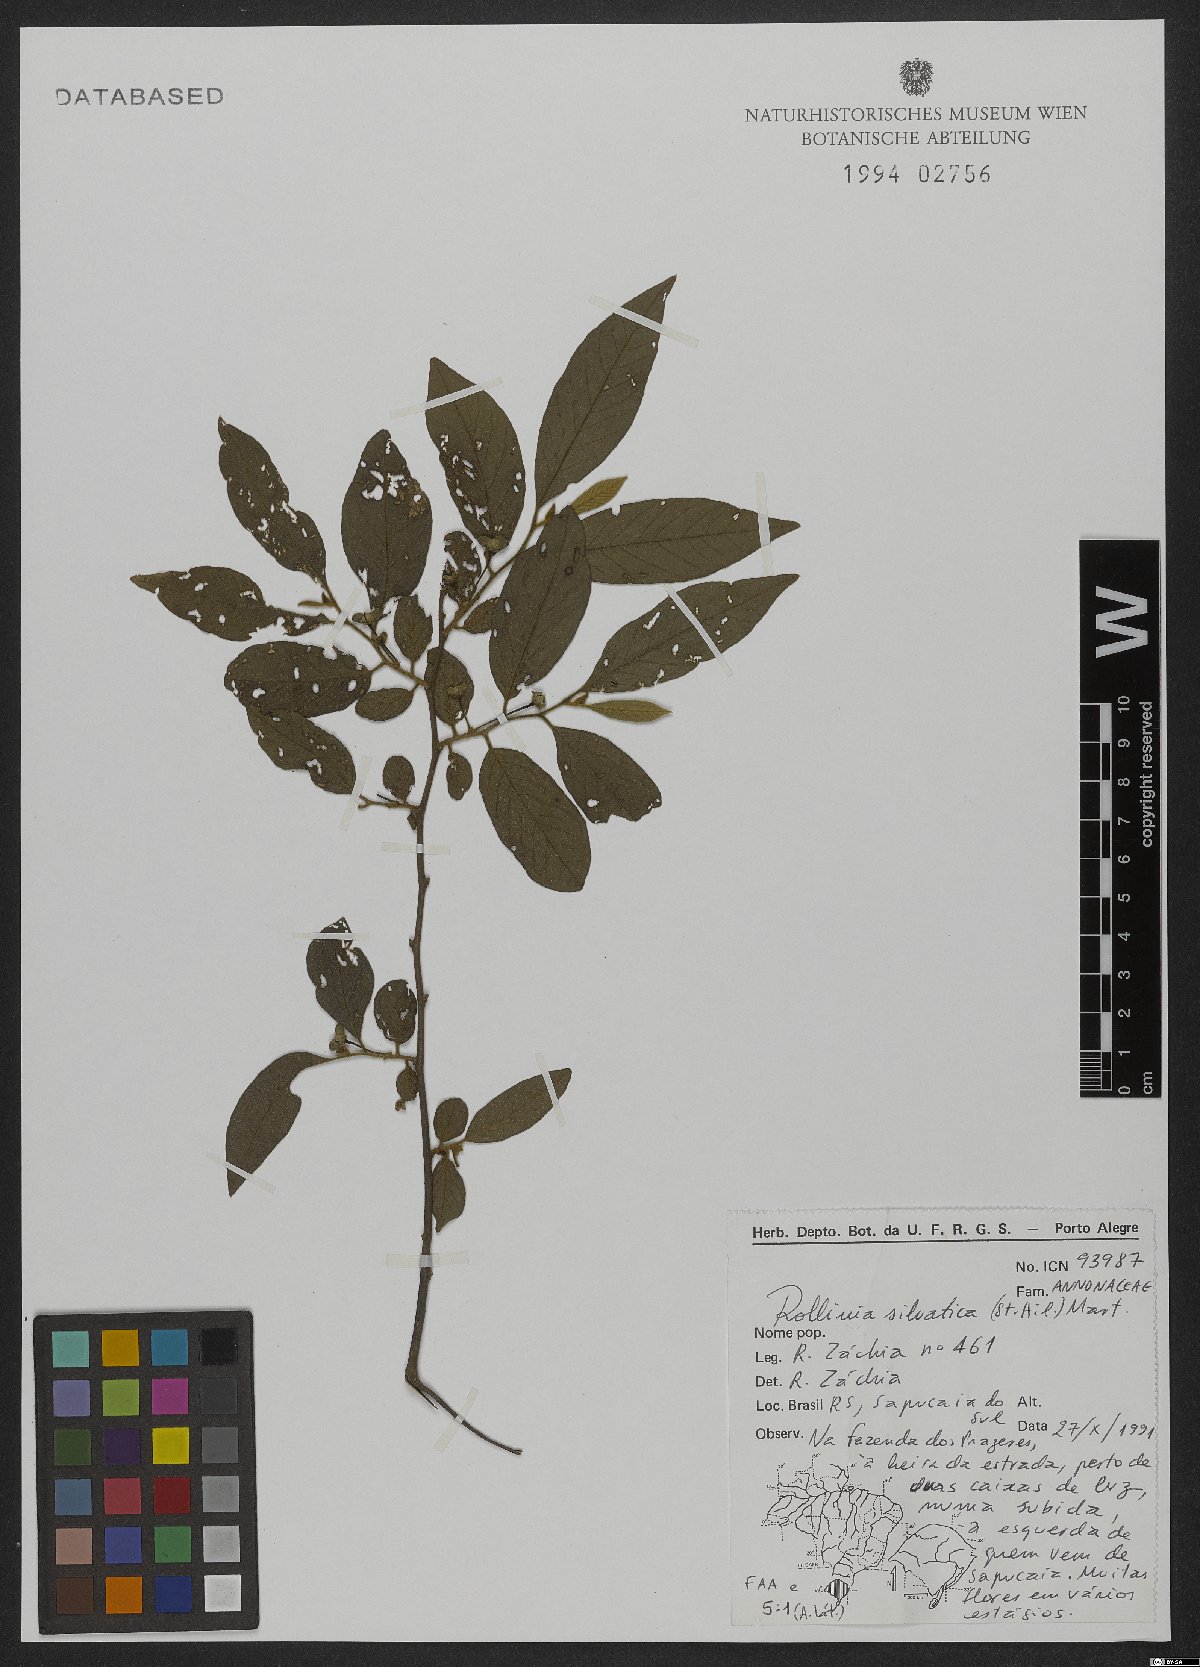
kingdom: Plantae
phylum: Tracheophyta
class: Magnoliopsida
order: Magnoliales
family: Annonaceae
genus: Annona
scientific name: Annona sylvatica
